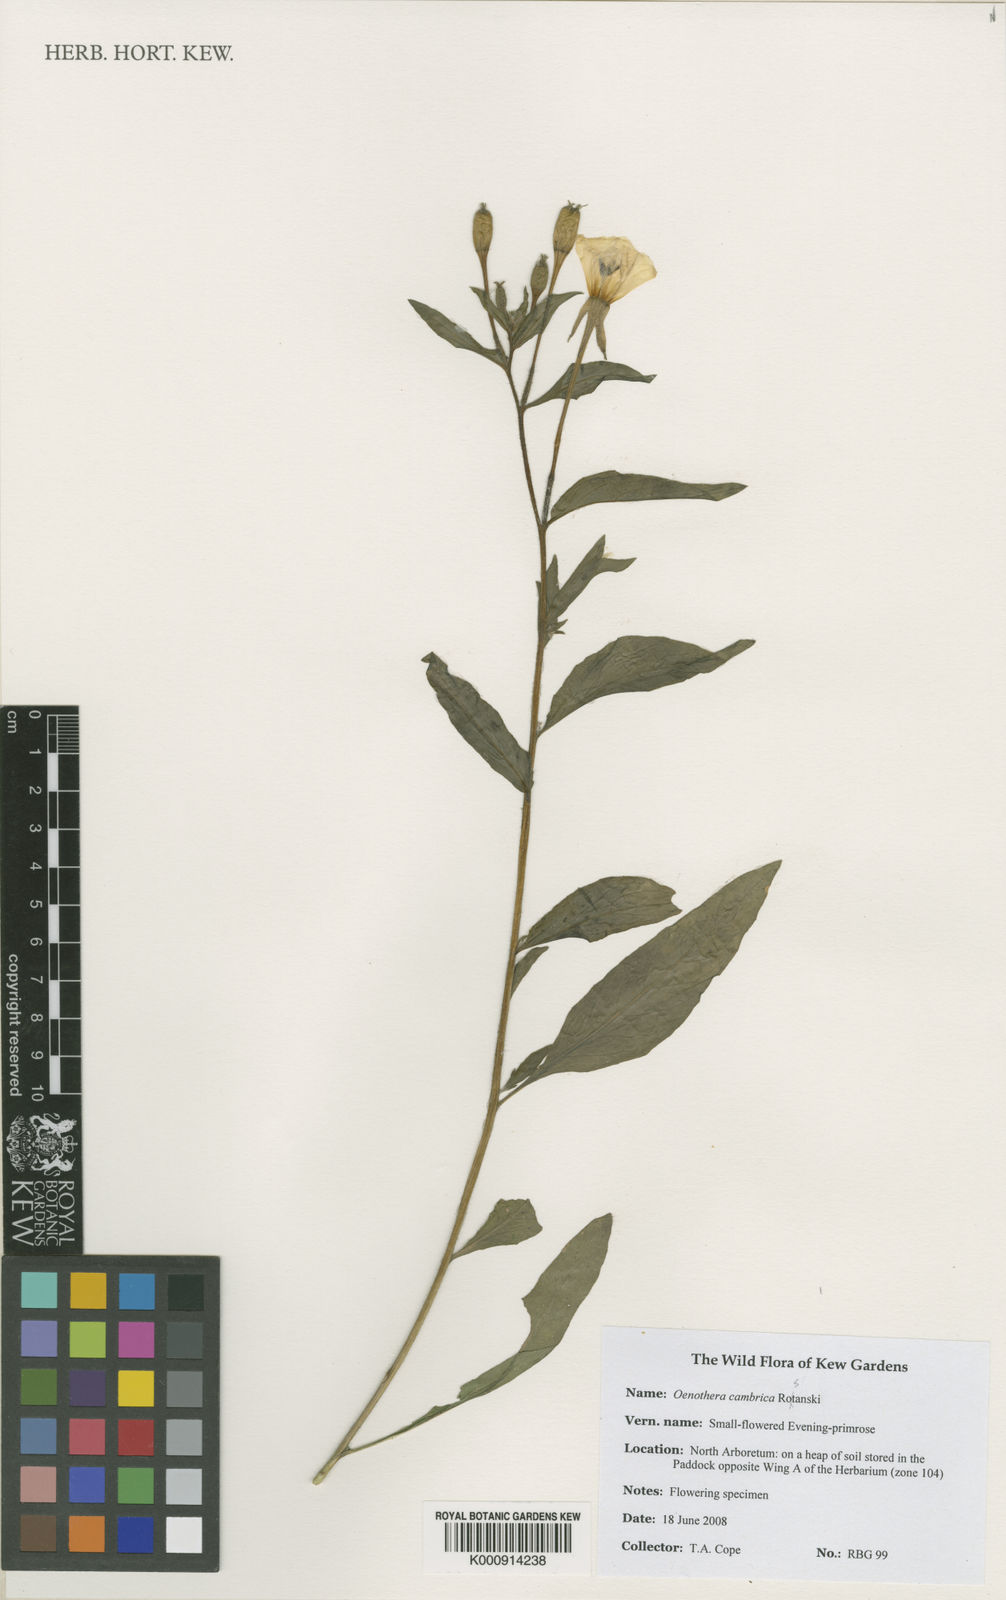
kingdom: Plantae
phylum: Tracheophyta
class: Magnoliopsida
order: Myrtales
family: Onagraceae
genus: Oenothera
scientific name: Oenothera cambrica
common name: Small-flowered evening-primrose
